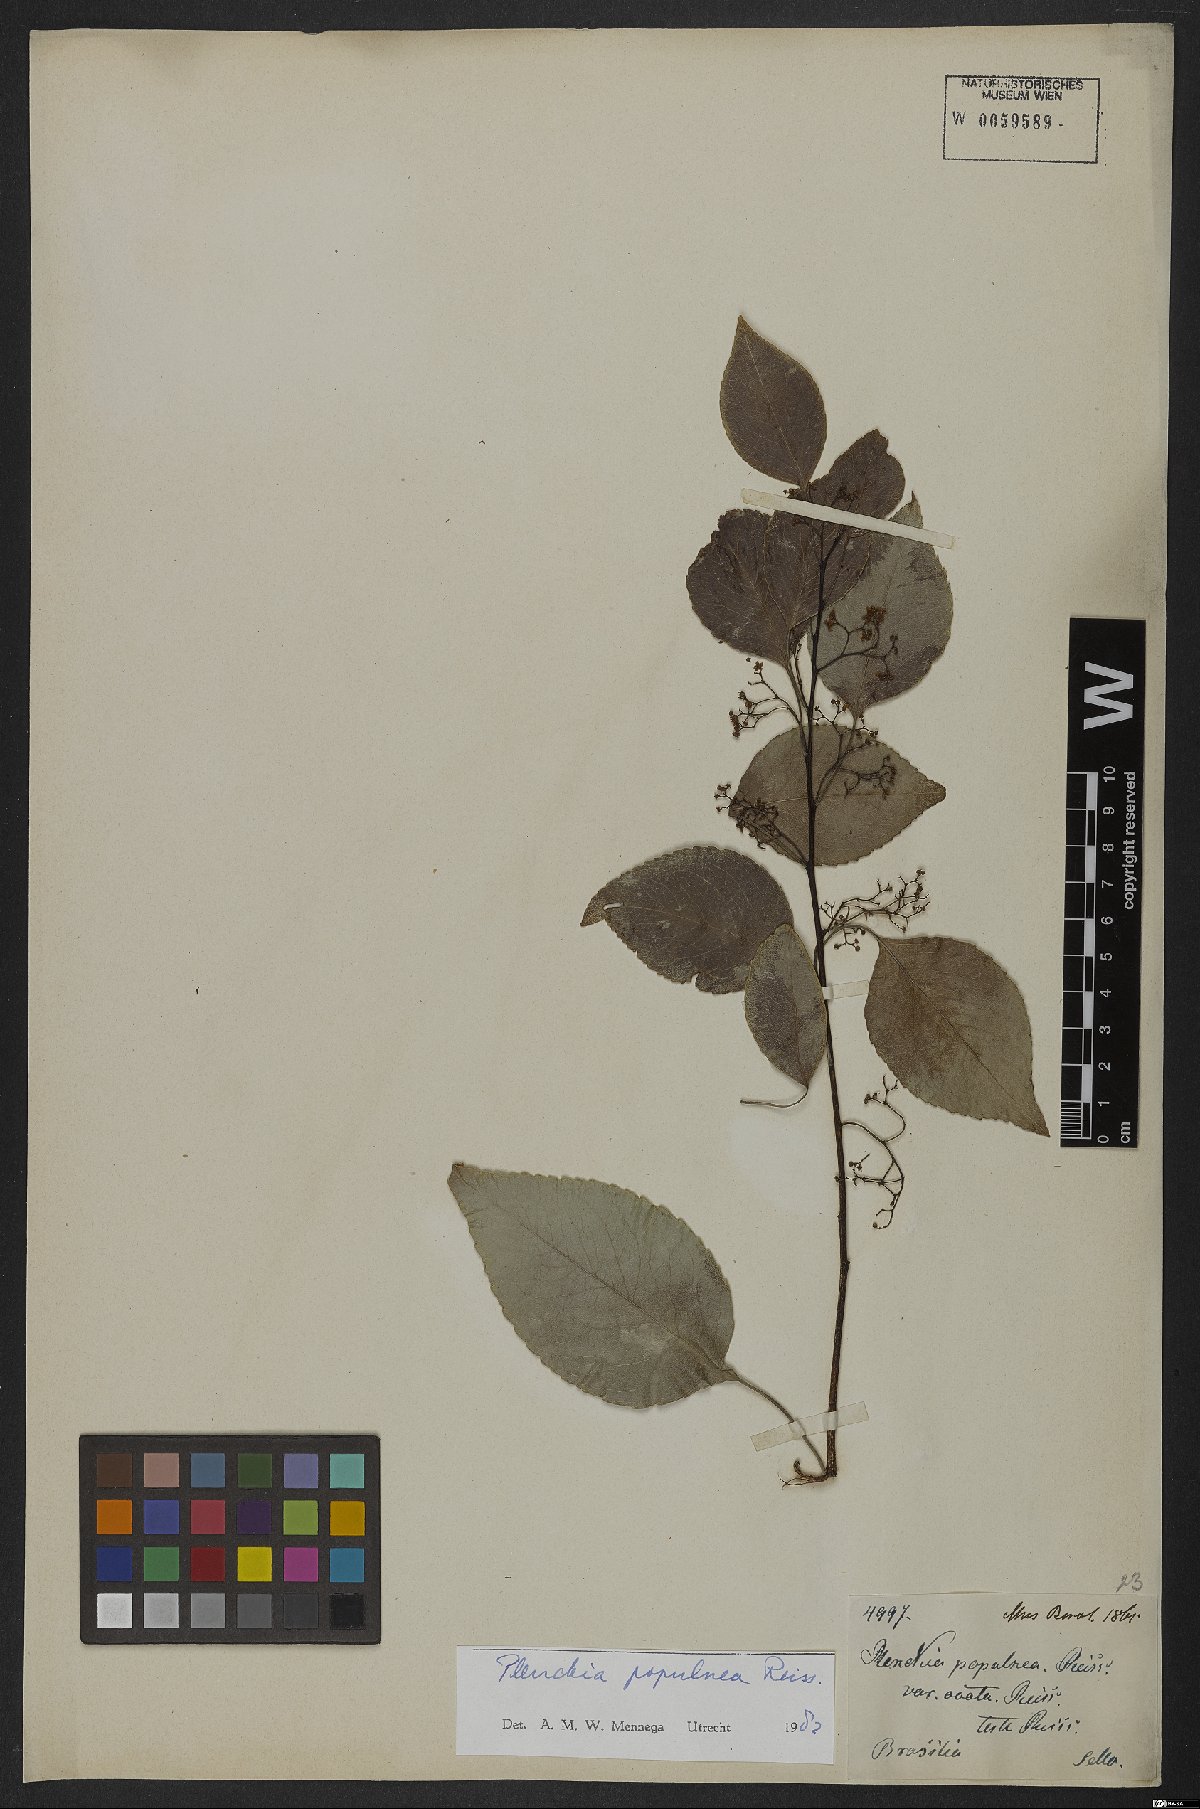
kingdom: Plantae
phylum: Tracheophyta
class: Magnoliopsida
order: Celastrales
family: Celastraceae
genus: Plenckia
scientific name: Plenckia populnea
